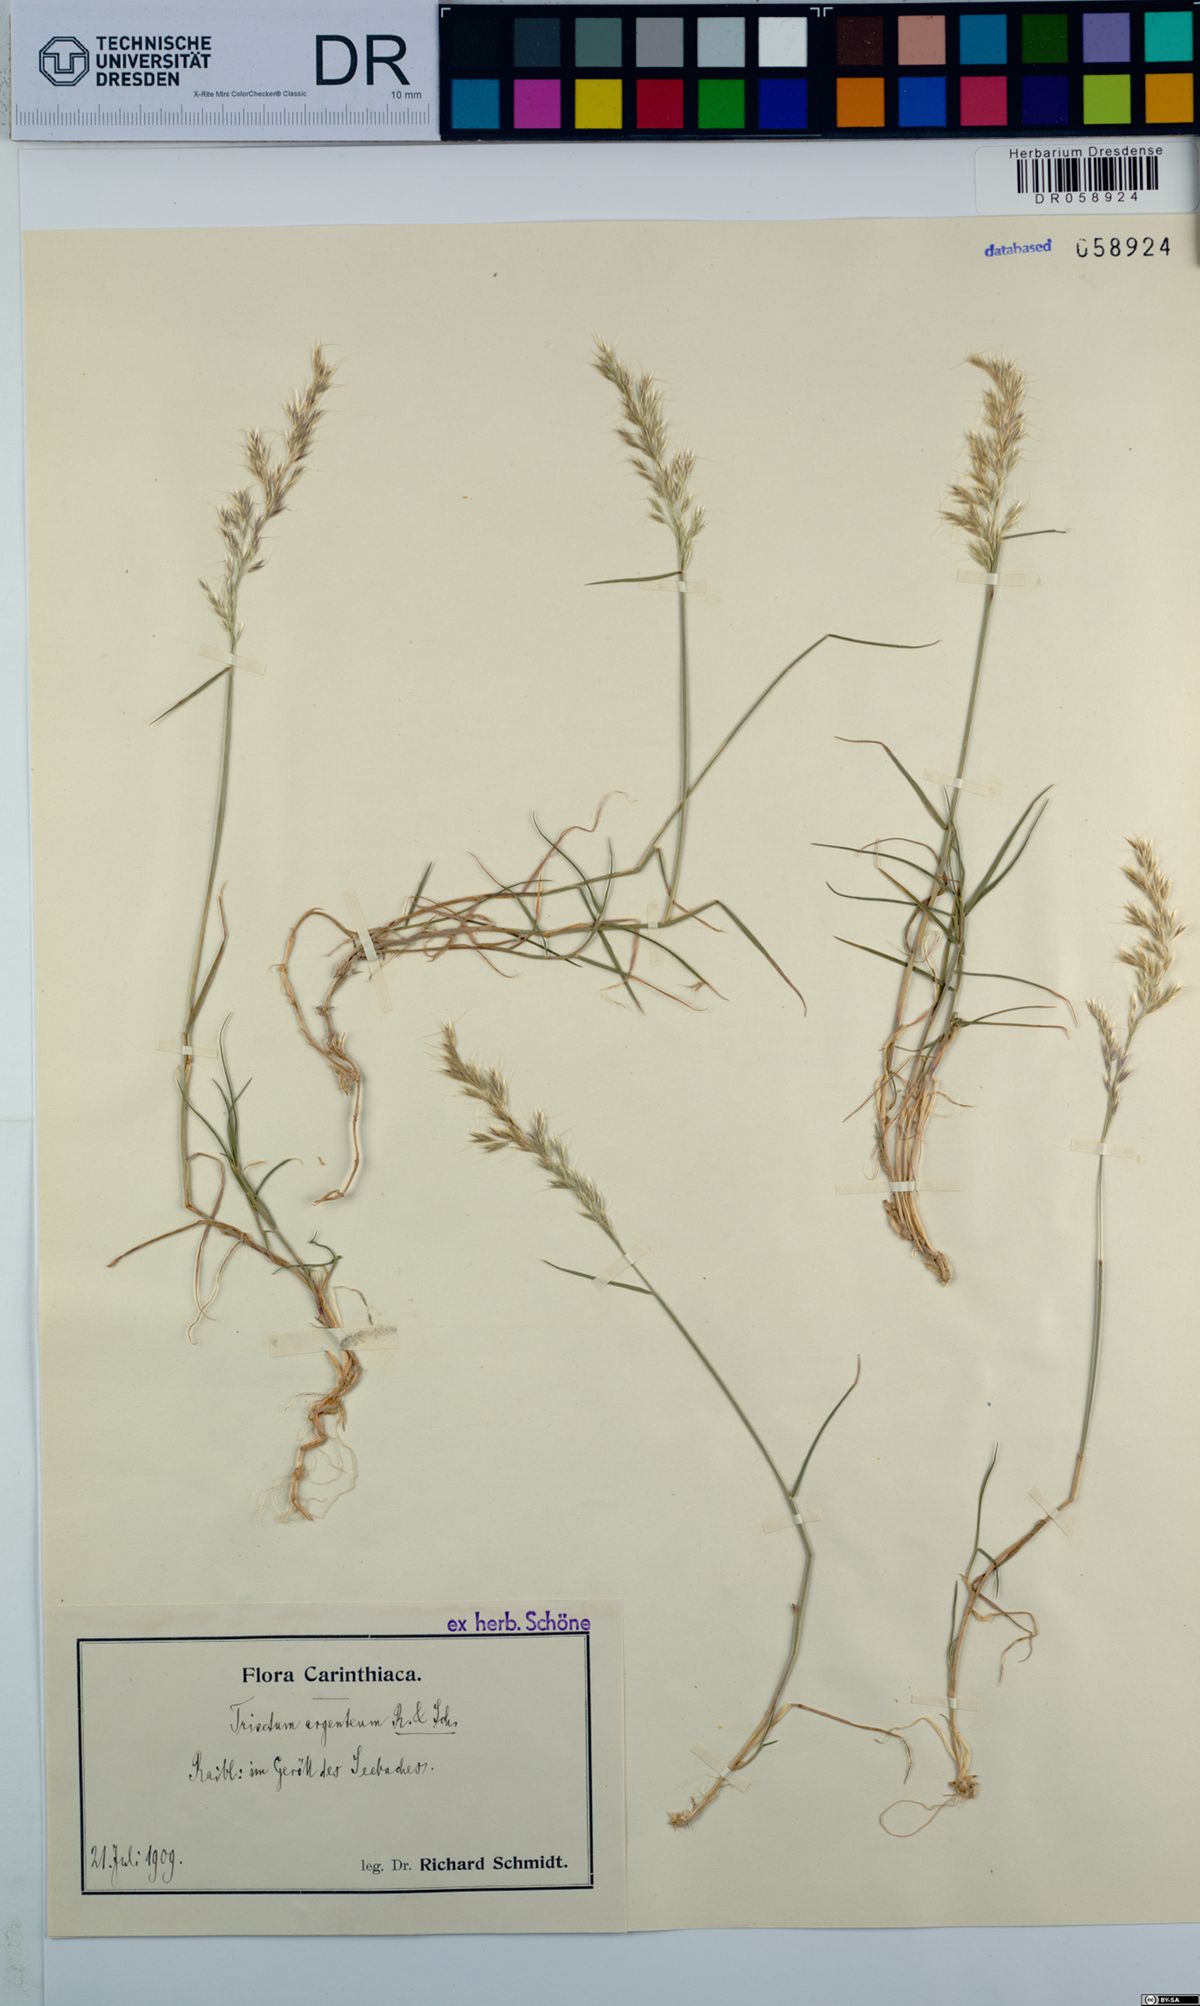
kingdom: Plantae
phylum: Tracheophyta
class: Liliopsida
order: Poales
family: Poaceae
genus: Trisetum
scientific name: Trisetum argenteum
